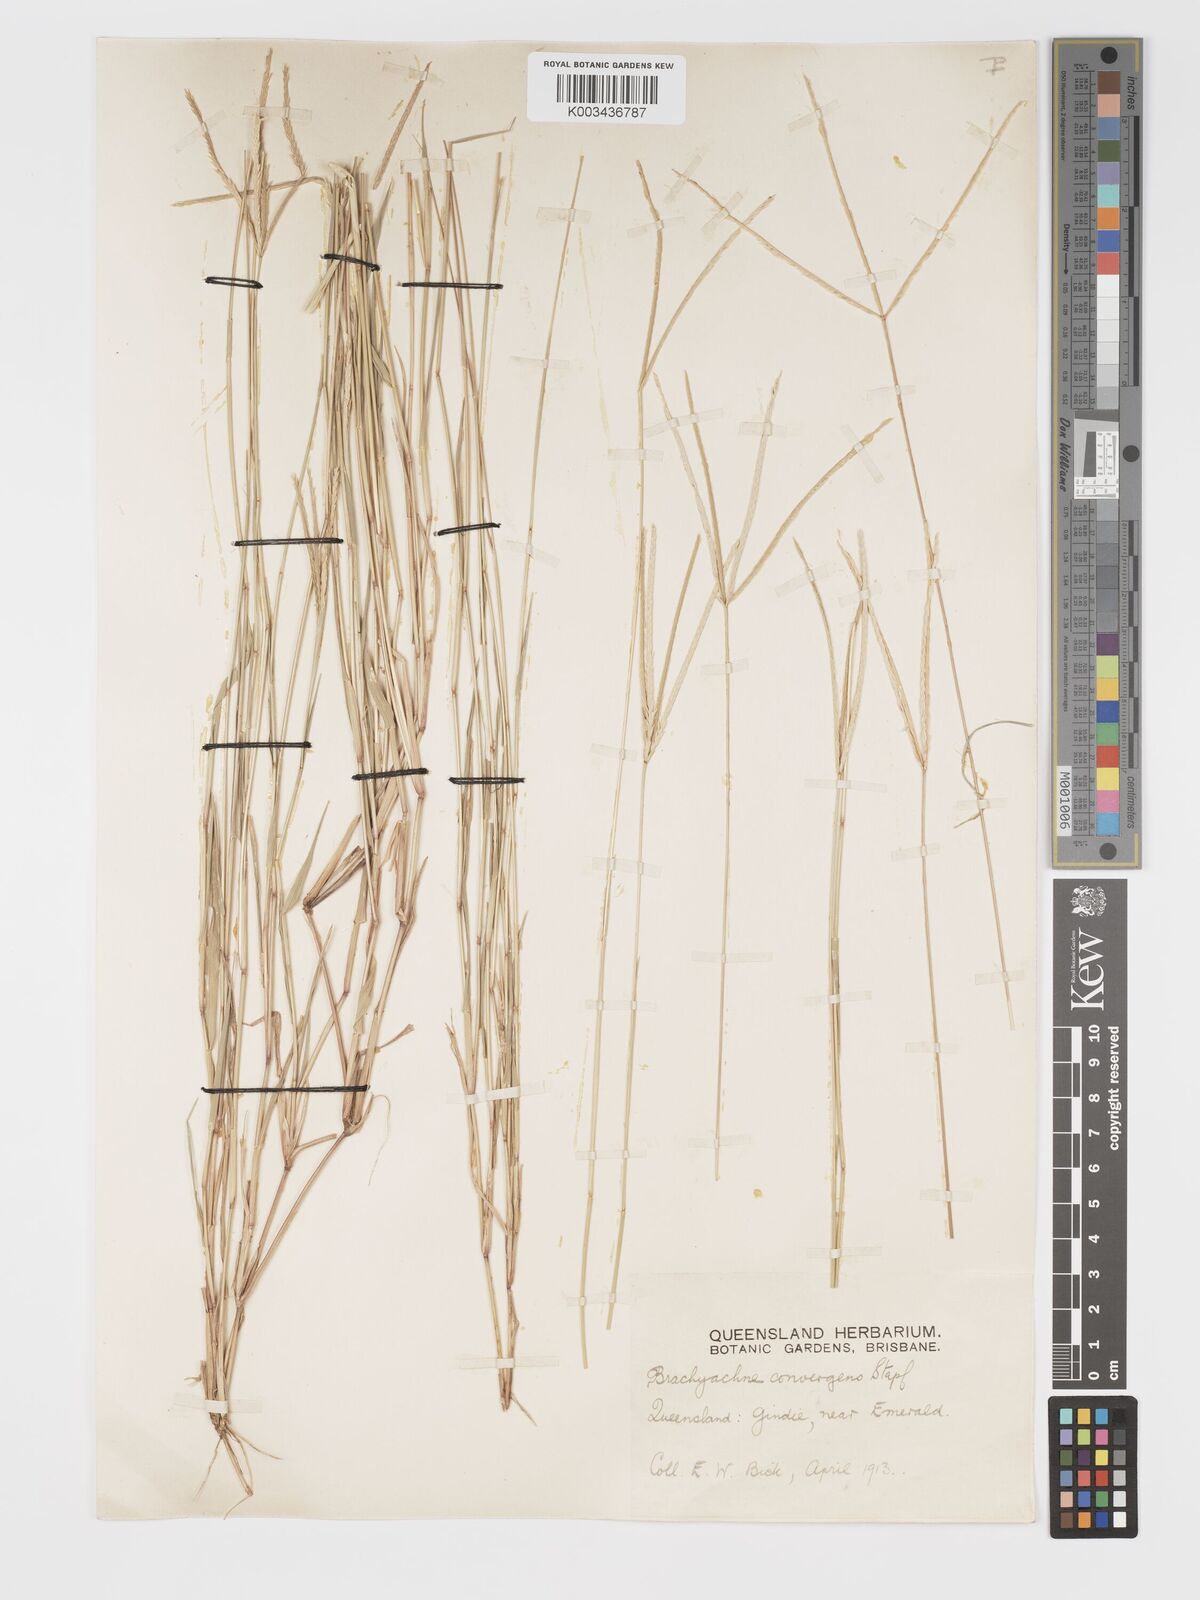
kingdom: Plantae
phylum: Tracheophyta
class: Liliopsida
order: Poales
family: Poaceae
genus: Cynodon
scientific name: Cynodon convergens
